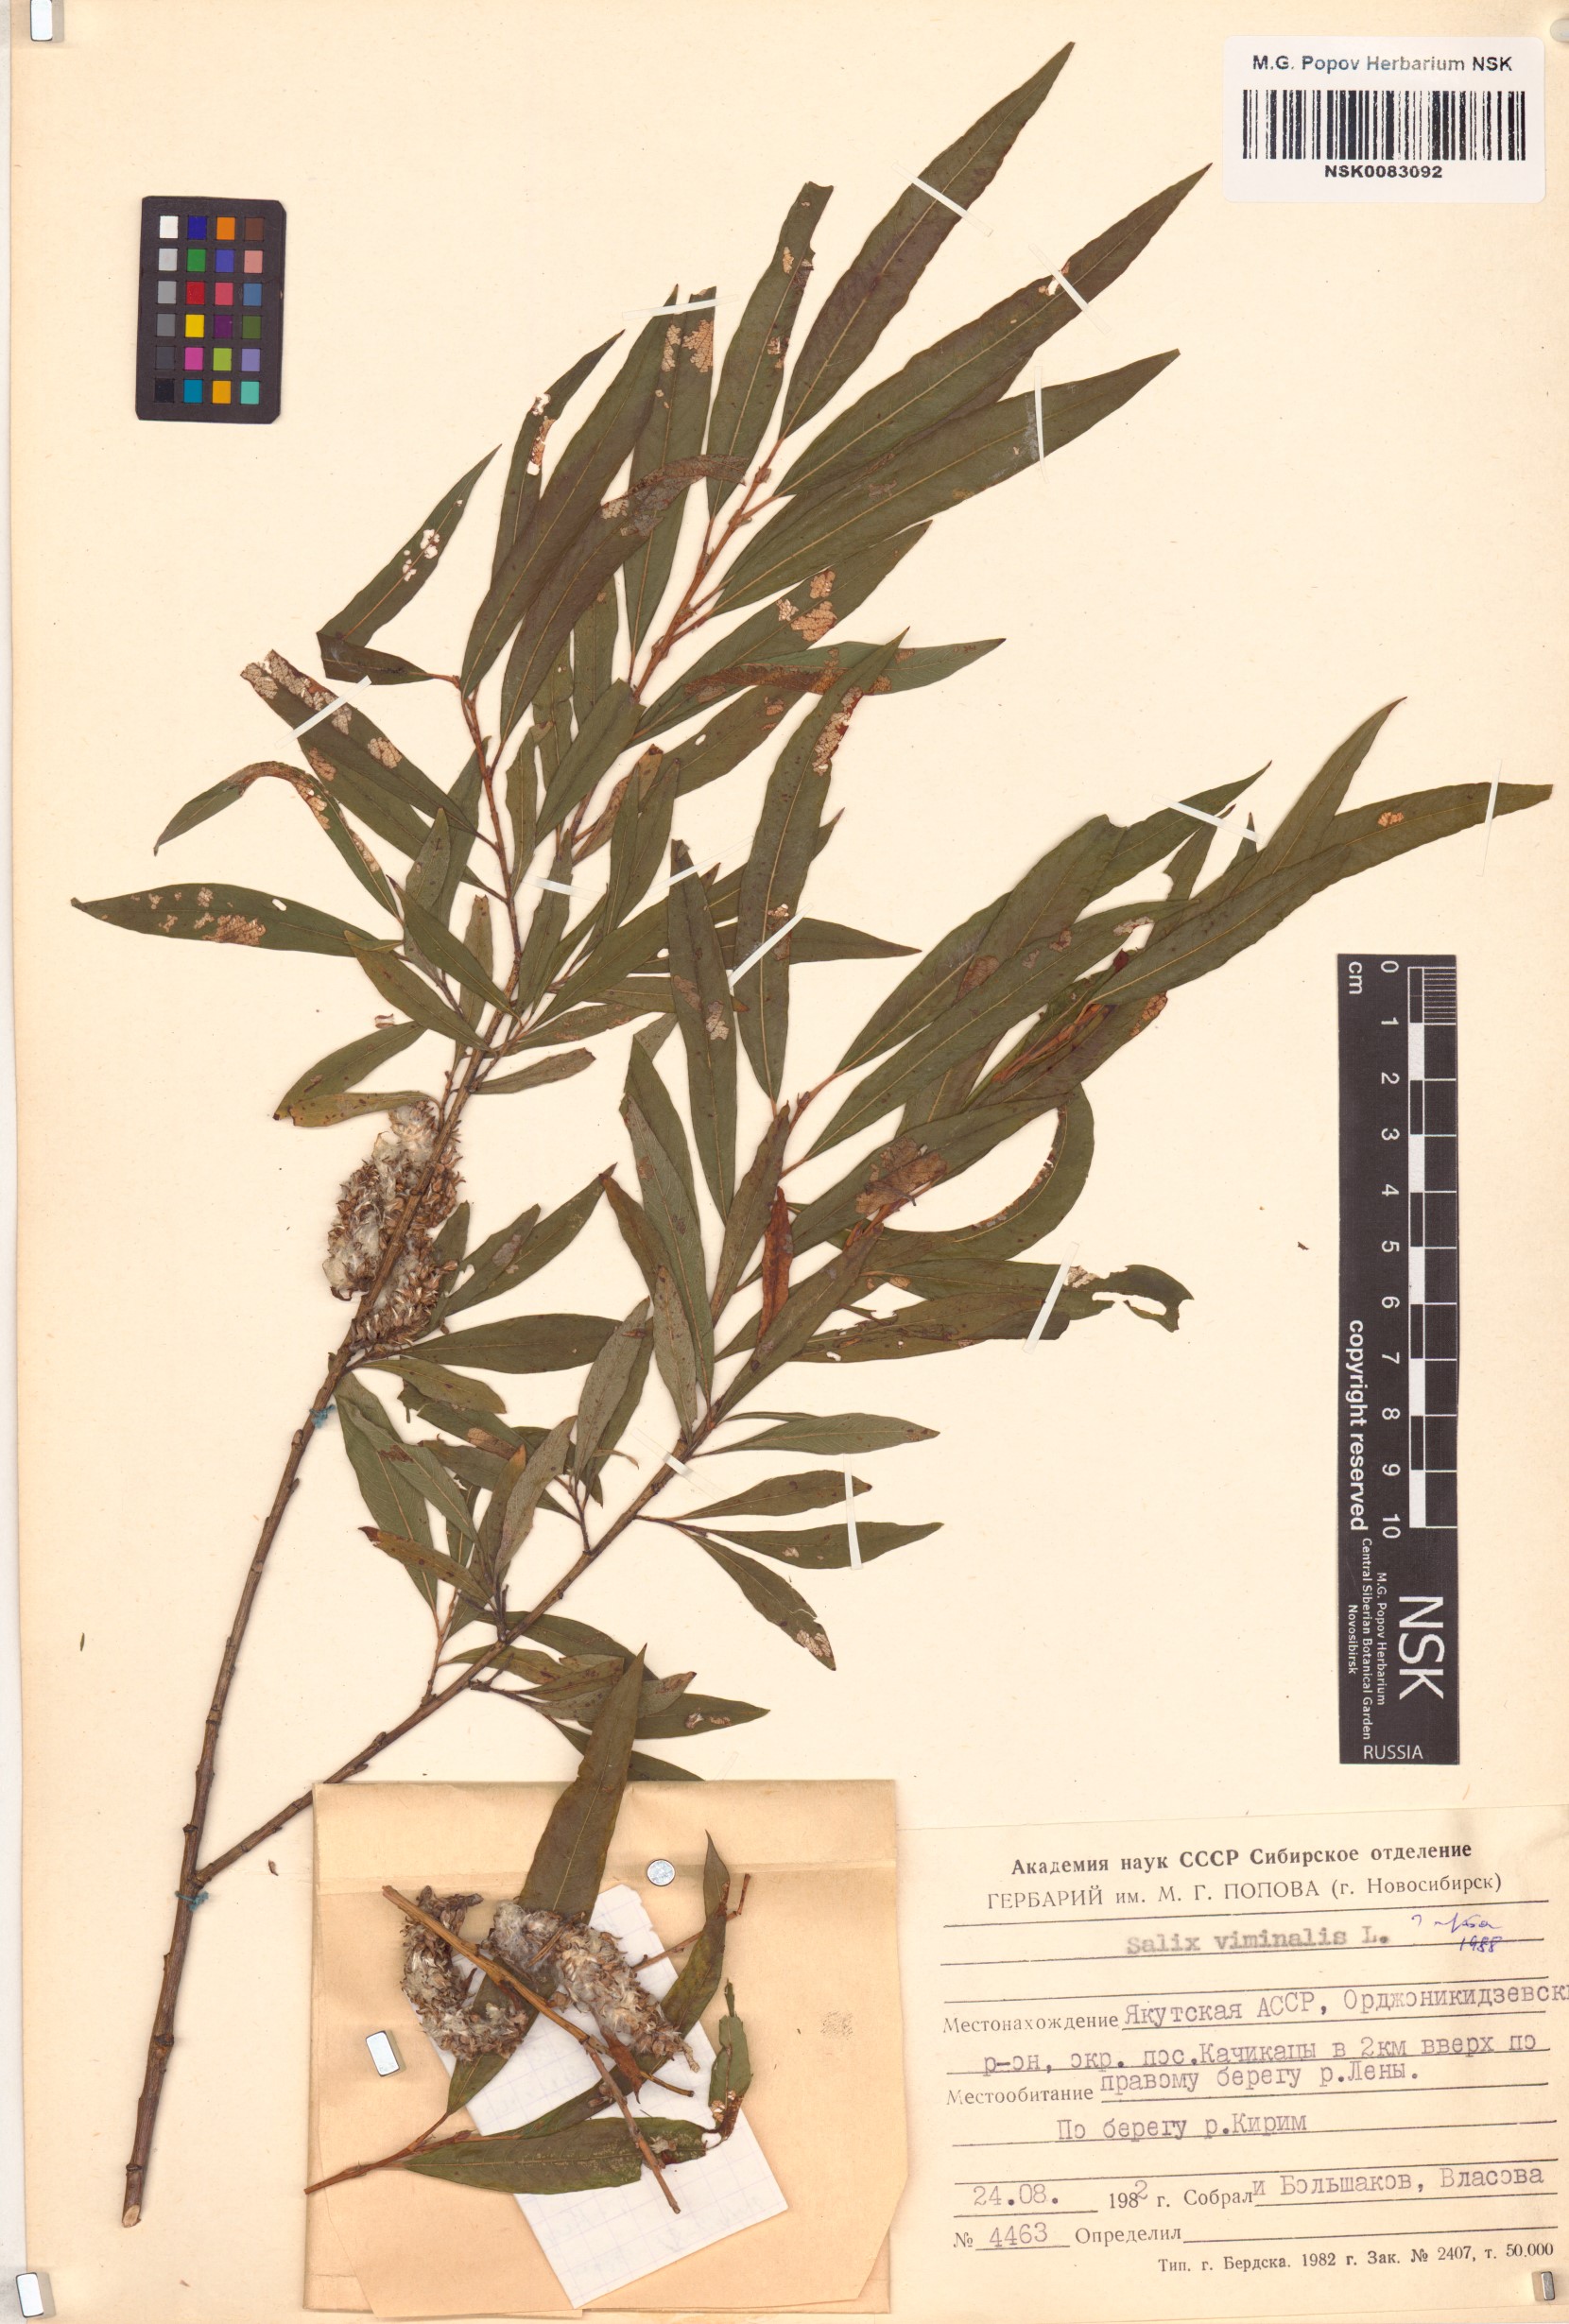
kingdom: Plantae
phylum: Tracheophyta
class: Magnoliopsida
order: Malpighiales
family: Salicaceae
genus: Salix
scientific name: Salix viminalis
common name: Osier
